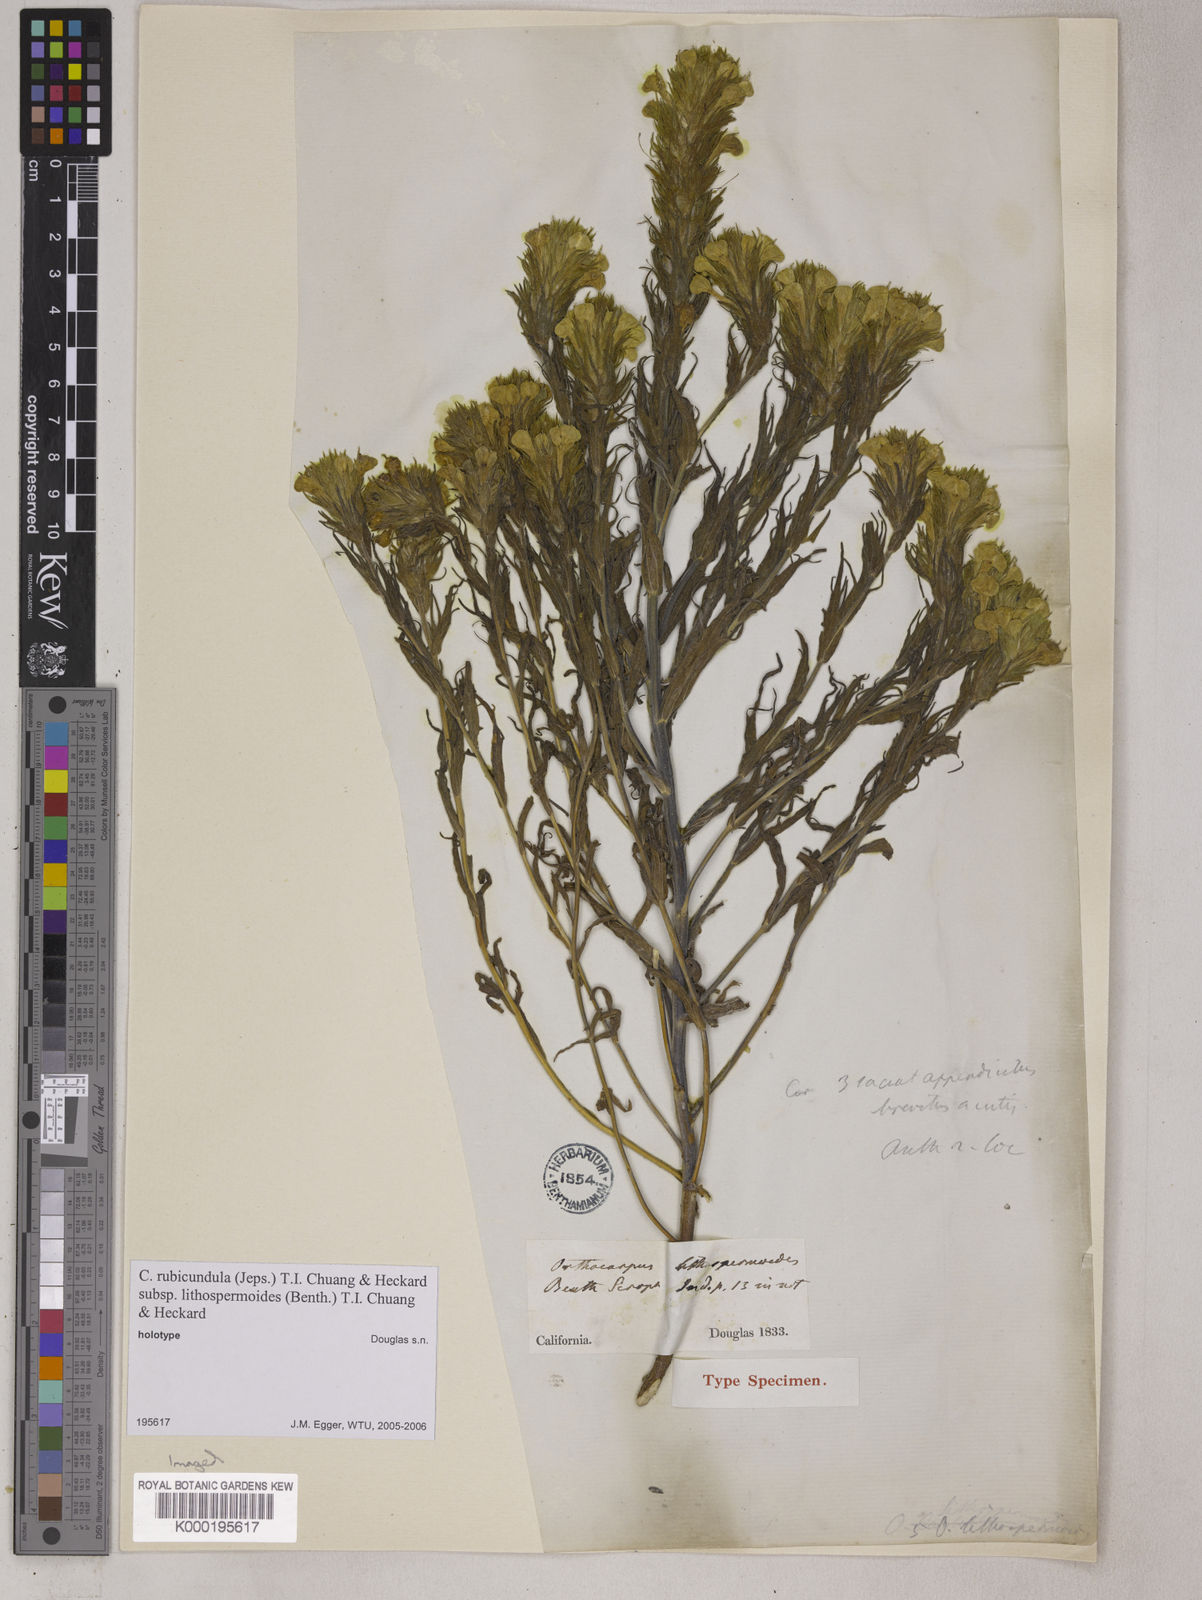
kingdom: Plantae
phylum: Tracheophyta
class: Magnoliopsida
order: Lamiales
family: Orobanchaceae
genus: Castilleja
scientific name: Castilleja rubicundula
